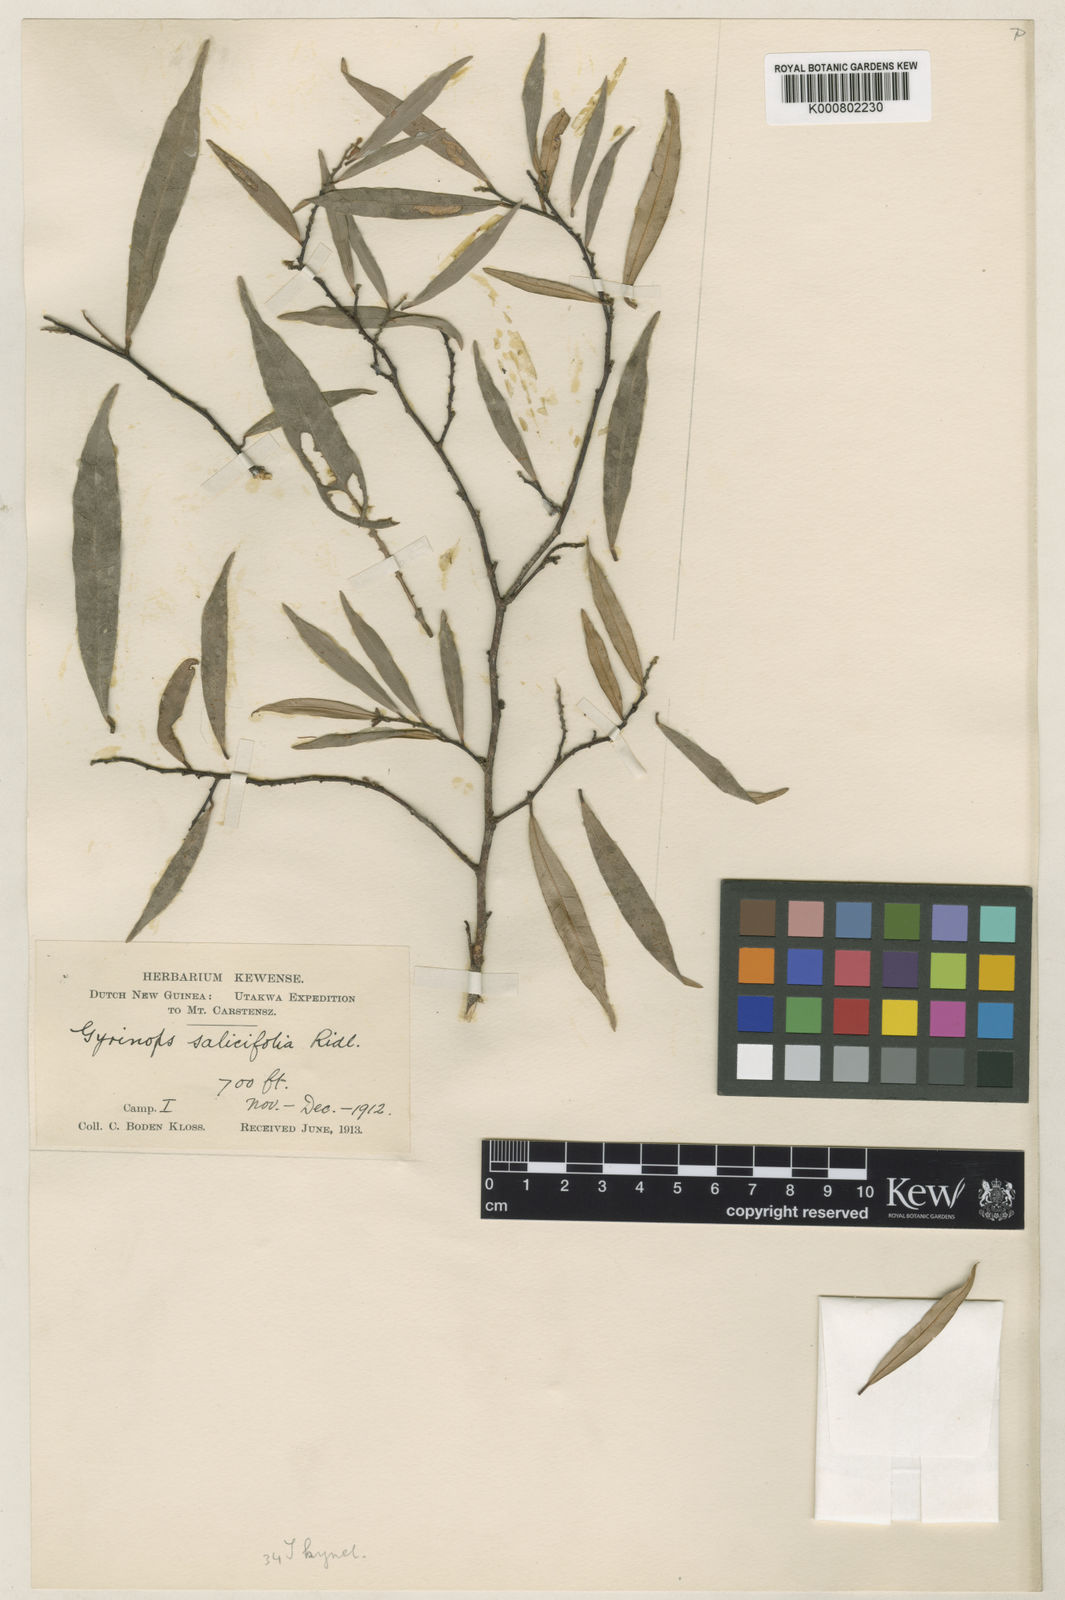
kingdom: Plantae
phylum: Tracheophyta
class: Magnoliopsida
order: Malvales
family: Thymelaeaceae
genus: Gyrinops
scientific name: Gyrinops salicifolia
